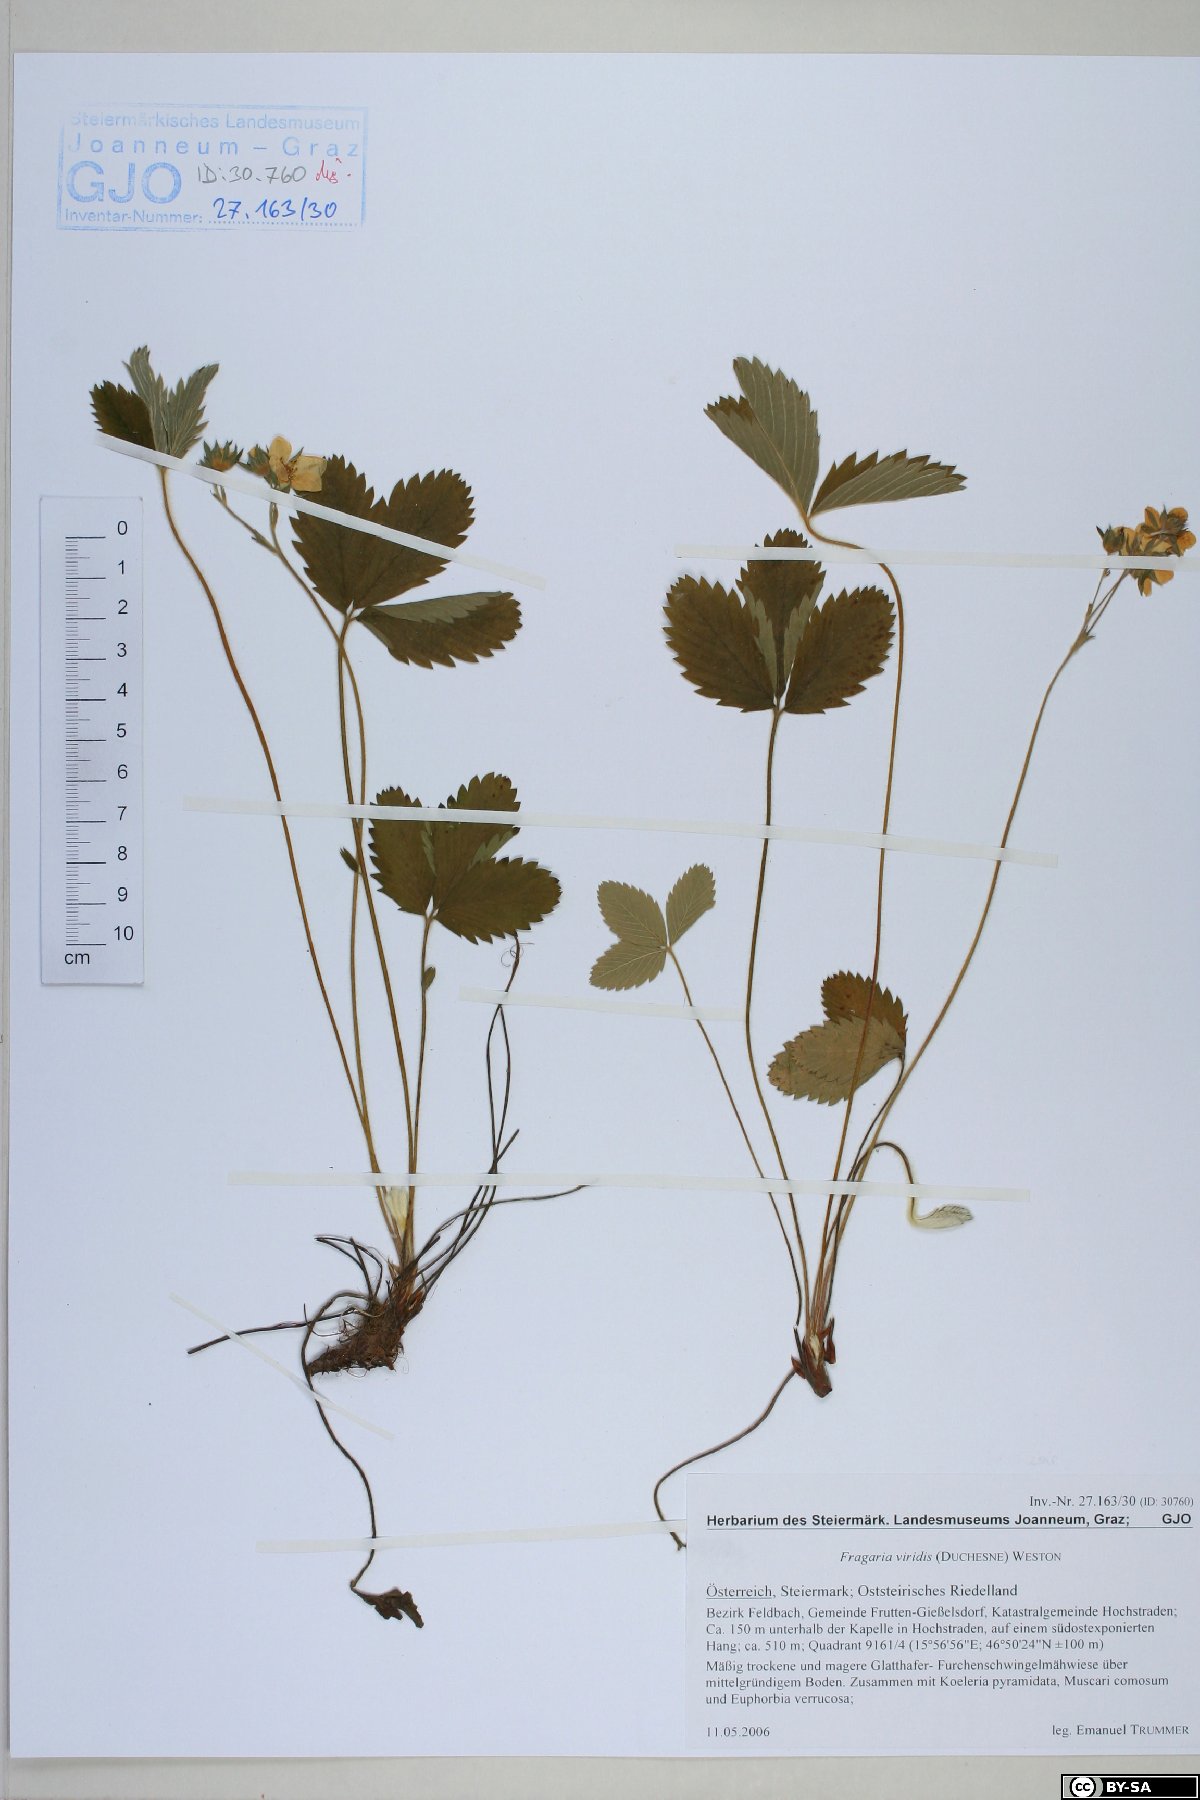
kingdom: Plantae
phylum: Tracheophyta
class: Magnoliopsida
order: Rosales
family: Rosaceae
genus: Fragaria
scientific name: Fragaria viridis
